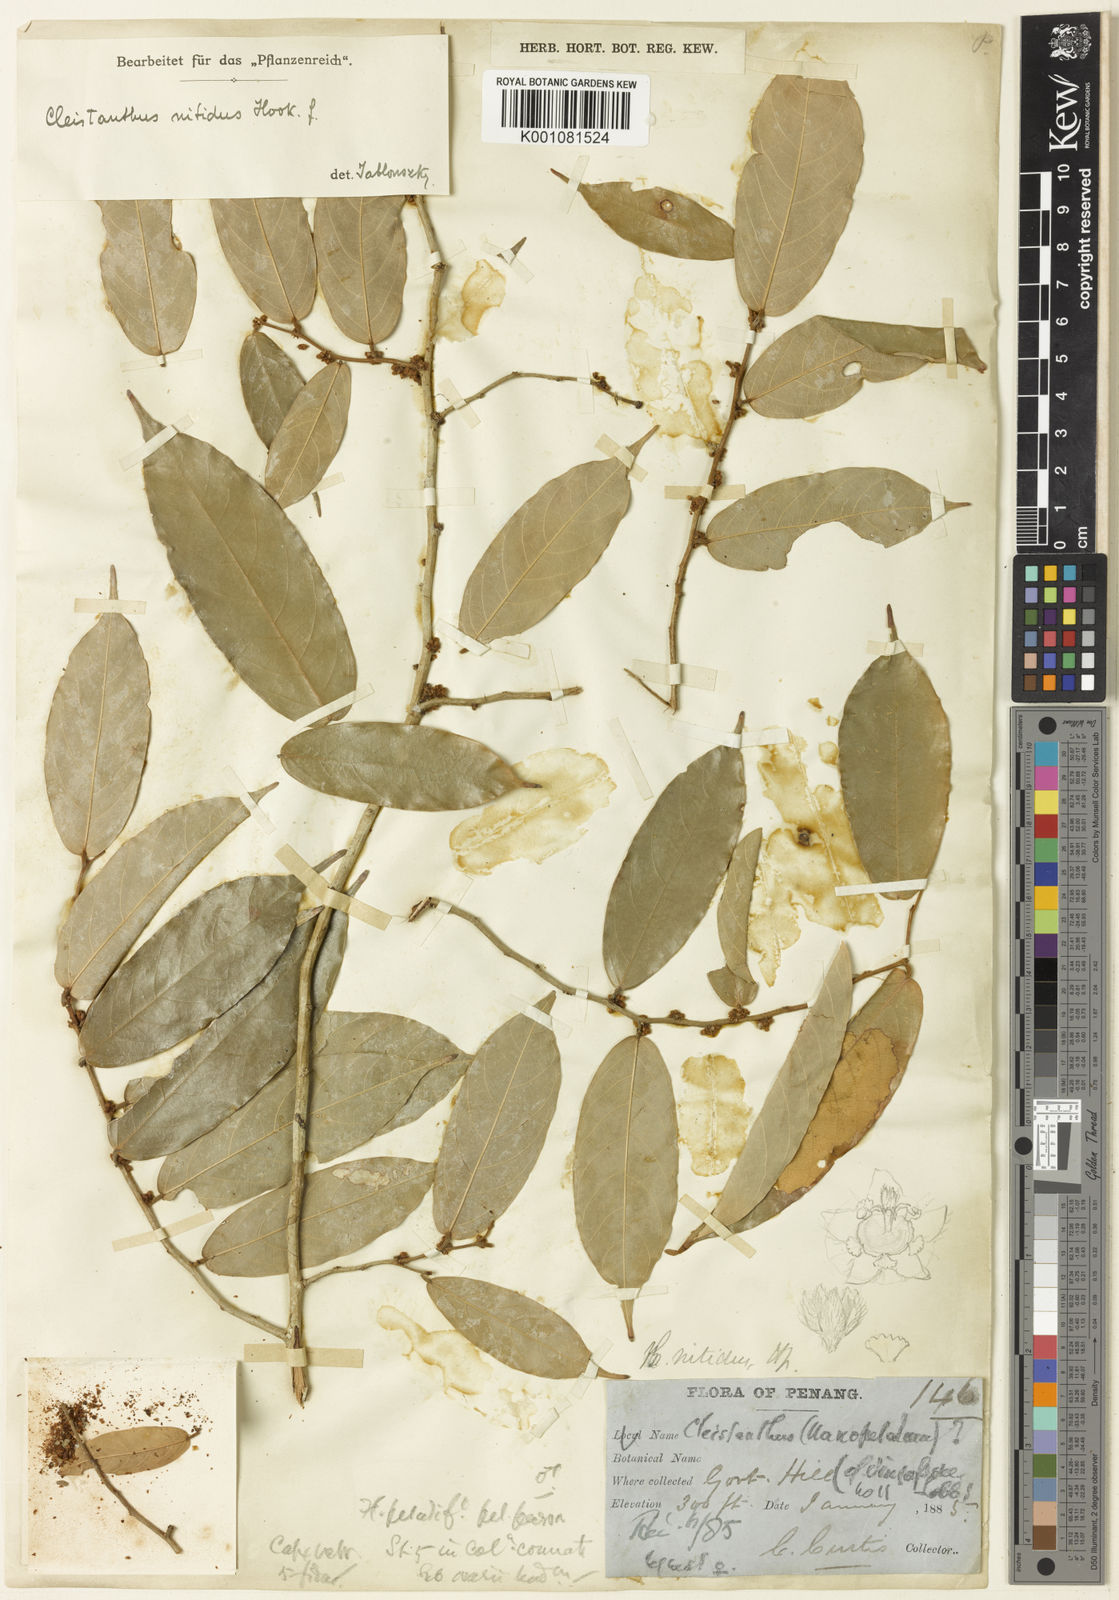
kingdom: Plantae
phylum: Tracheophyta
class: Magnoliopsida
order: Malpighiales
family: Phyllanthaceae
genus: Cleistanthus
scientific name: Cleistanthus nitidus
